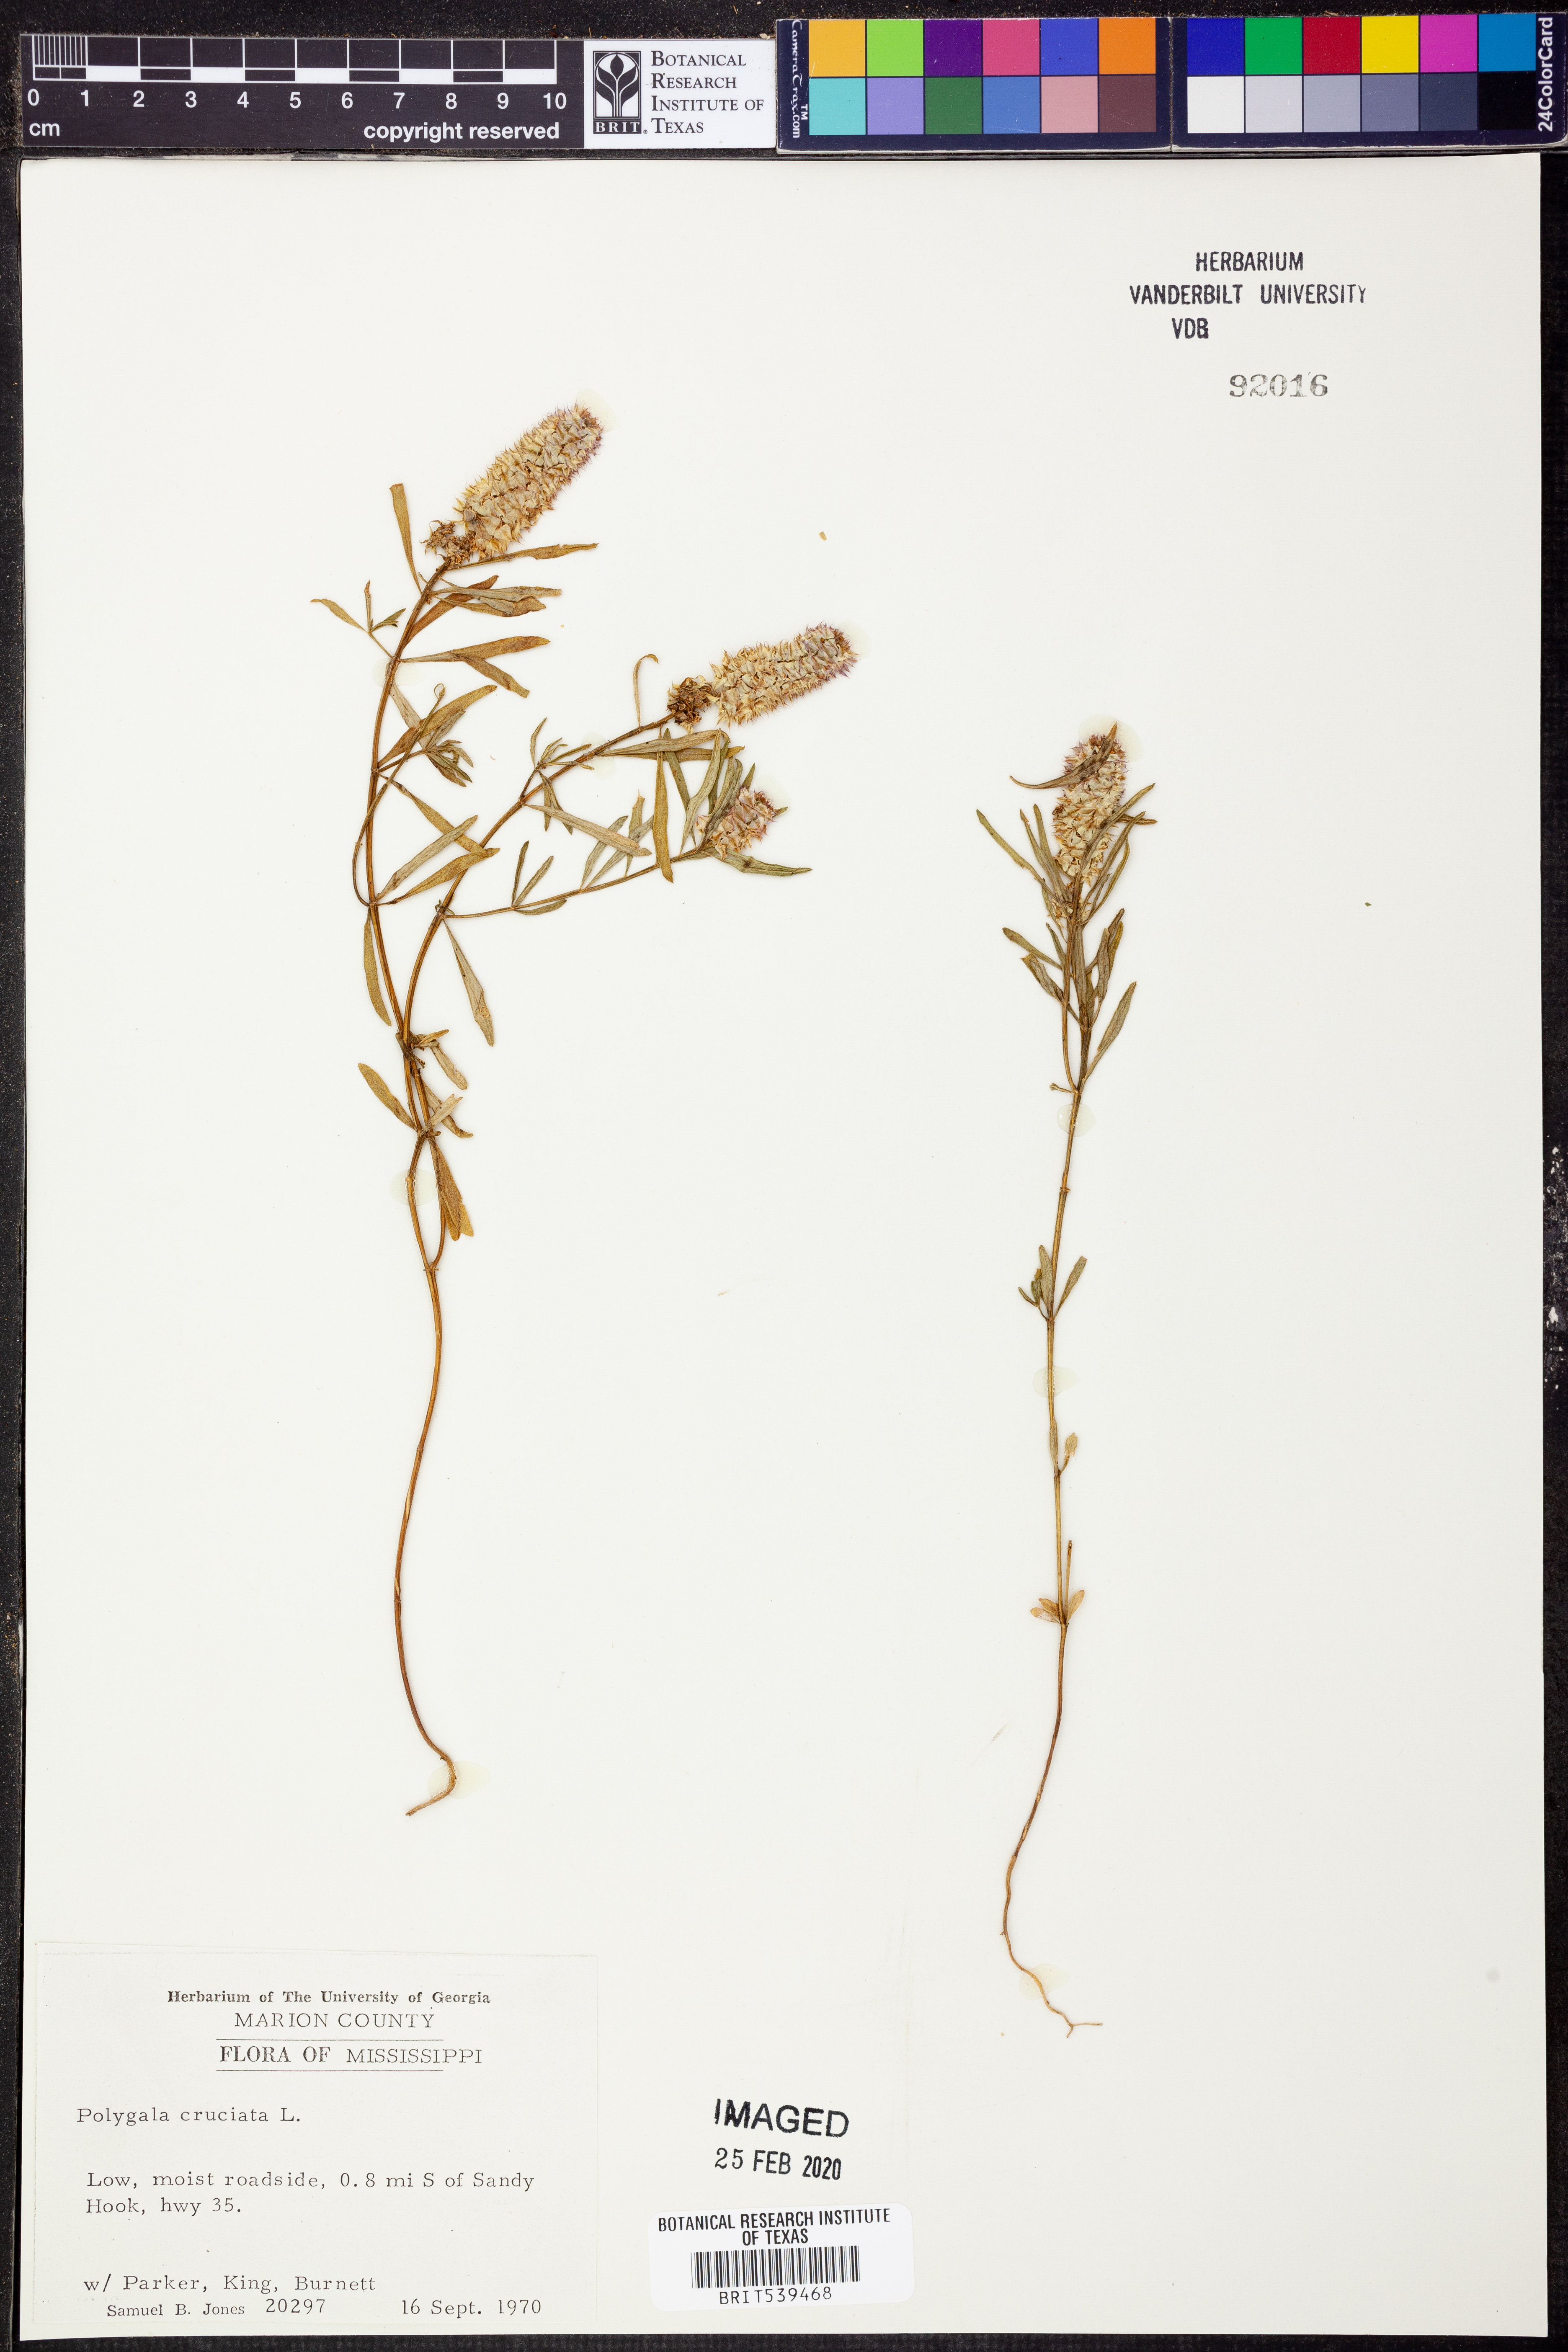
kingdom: Plantae
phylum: Tracheophyta
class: Magnoliopsida
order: Fabales
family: Polygalaceae
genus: Polygala
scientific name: Polygala cruciata
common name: Drumheads
